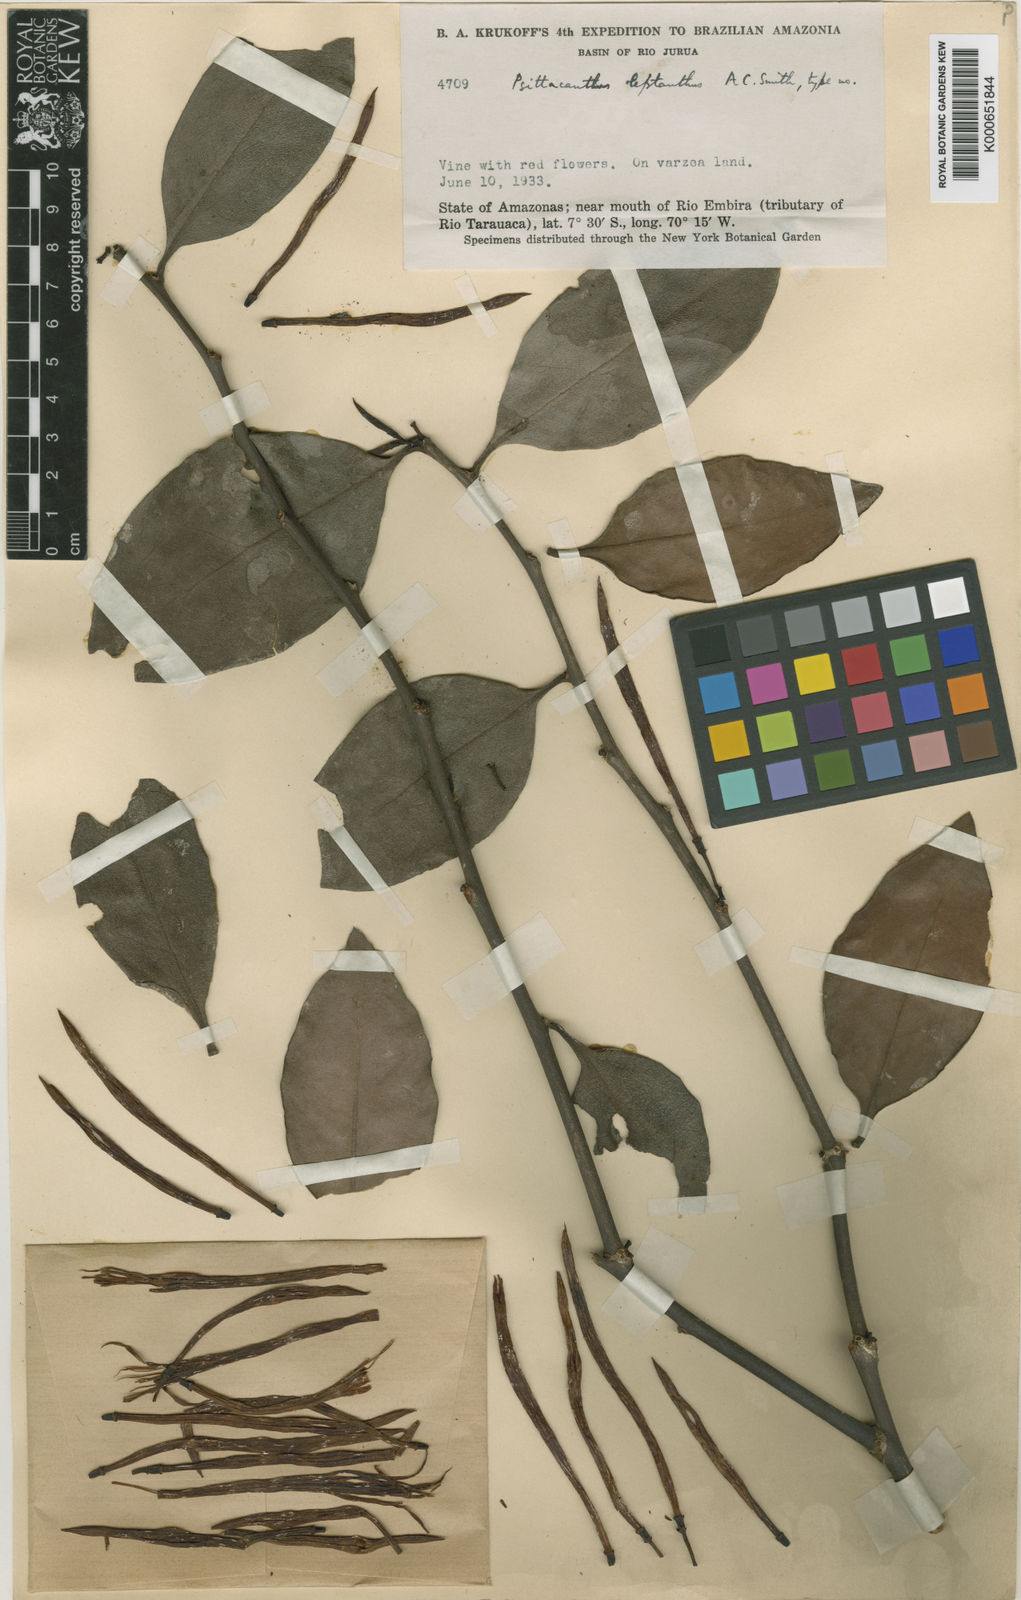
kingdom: Plantae
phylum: Tracheophyta
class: Magnoliopsida
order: Santalales
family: Loranthaceae
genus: Psittacanthus
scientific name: Psittacanthus leptanthus
